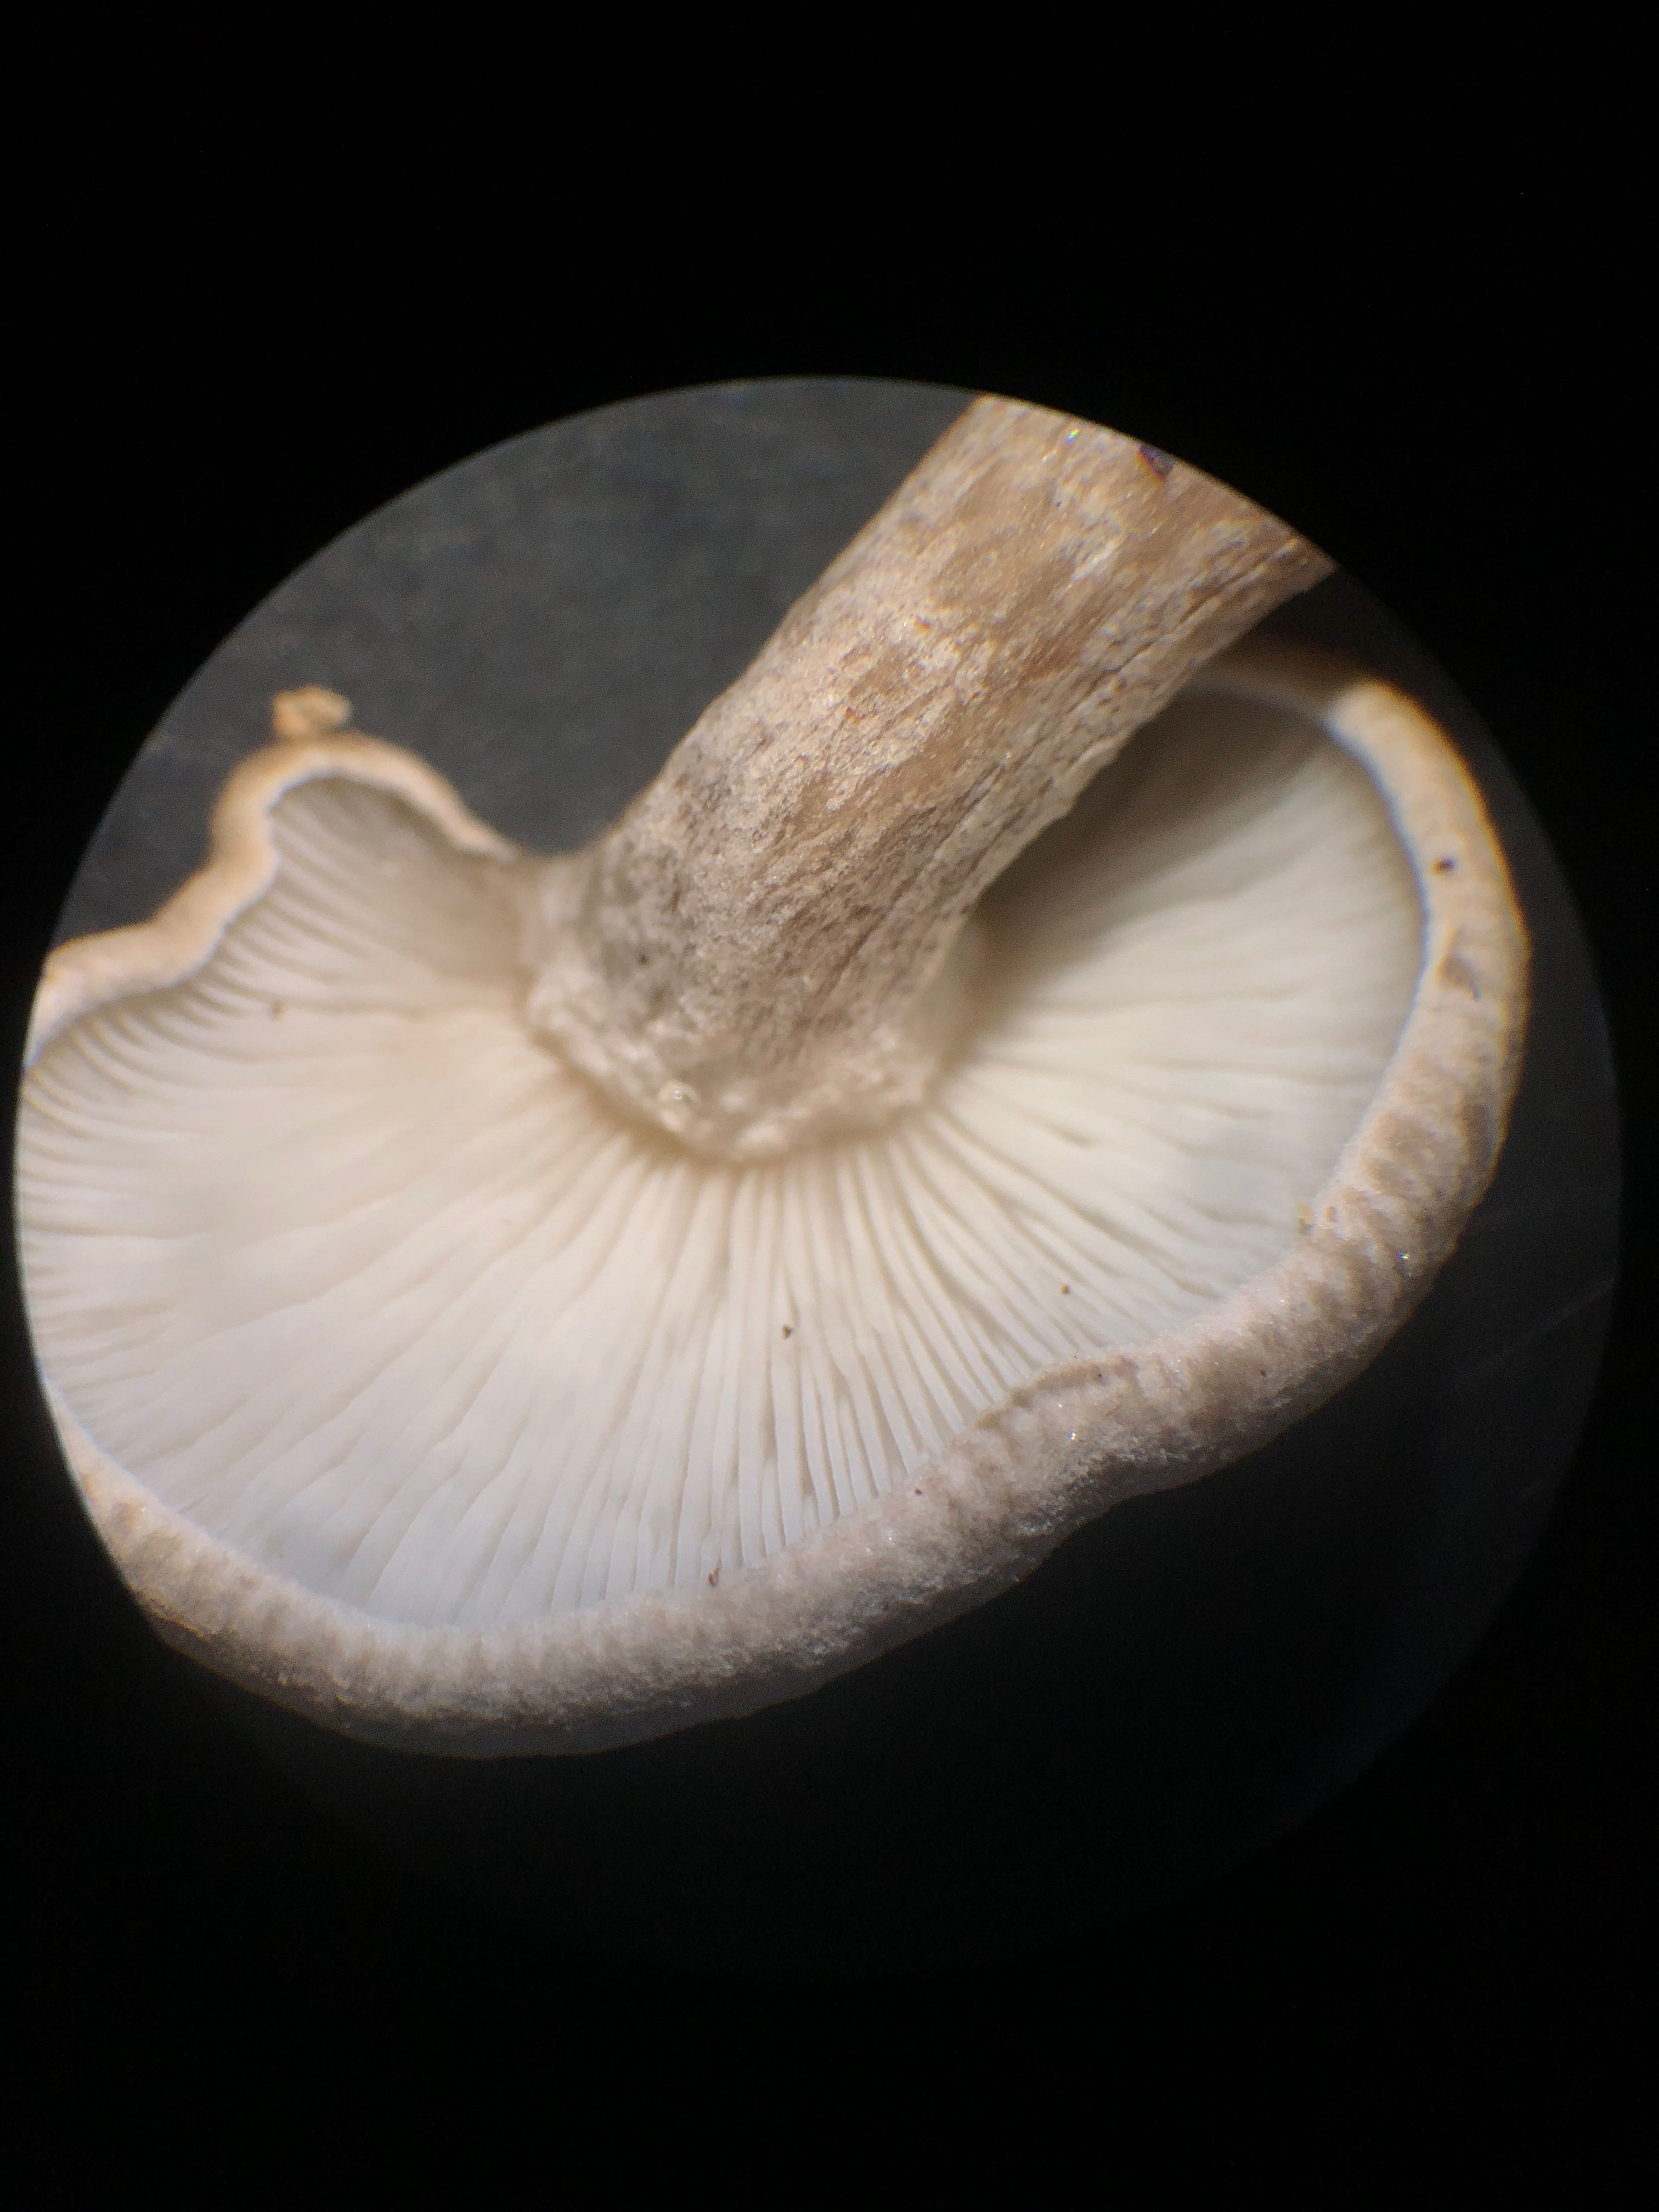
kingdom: Fungi
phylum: Basidiomycota
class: Agaricomycetes
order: Agaricales
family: Lyophyllaceae
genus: Ossicaulis
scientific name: Ossicaulis lachnopus
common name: småsporet vedtragthat
